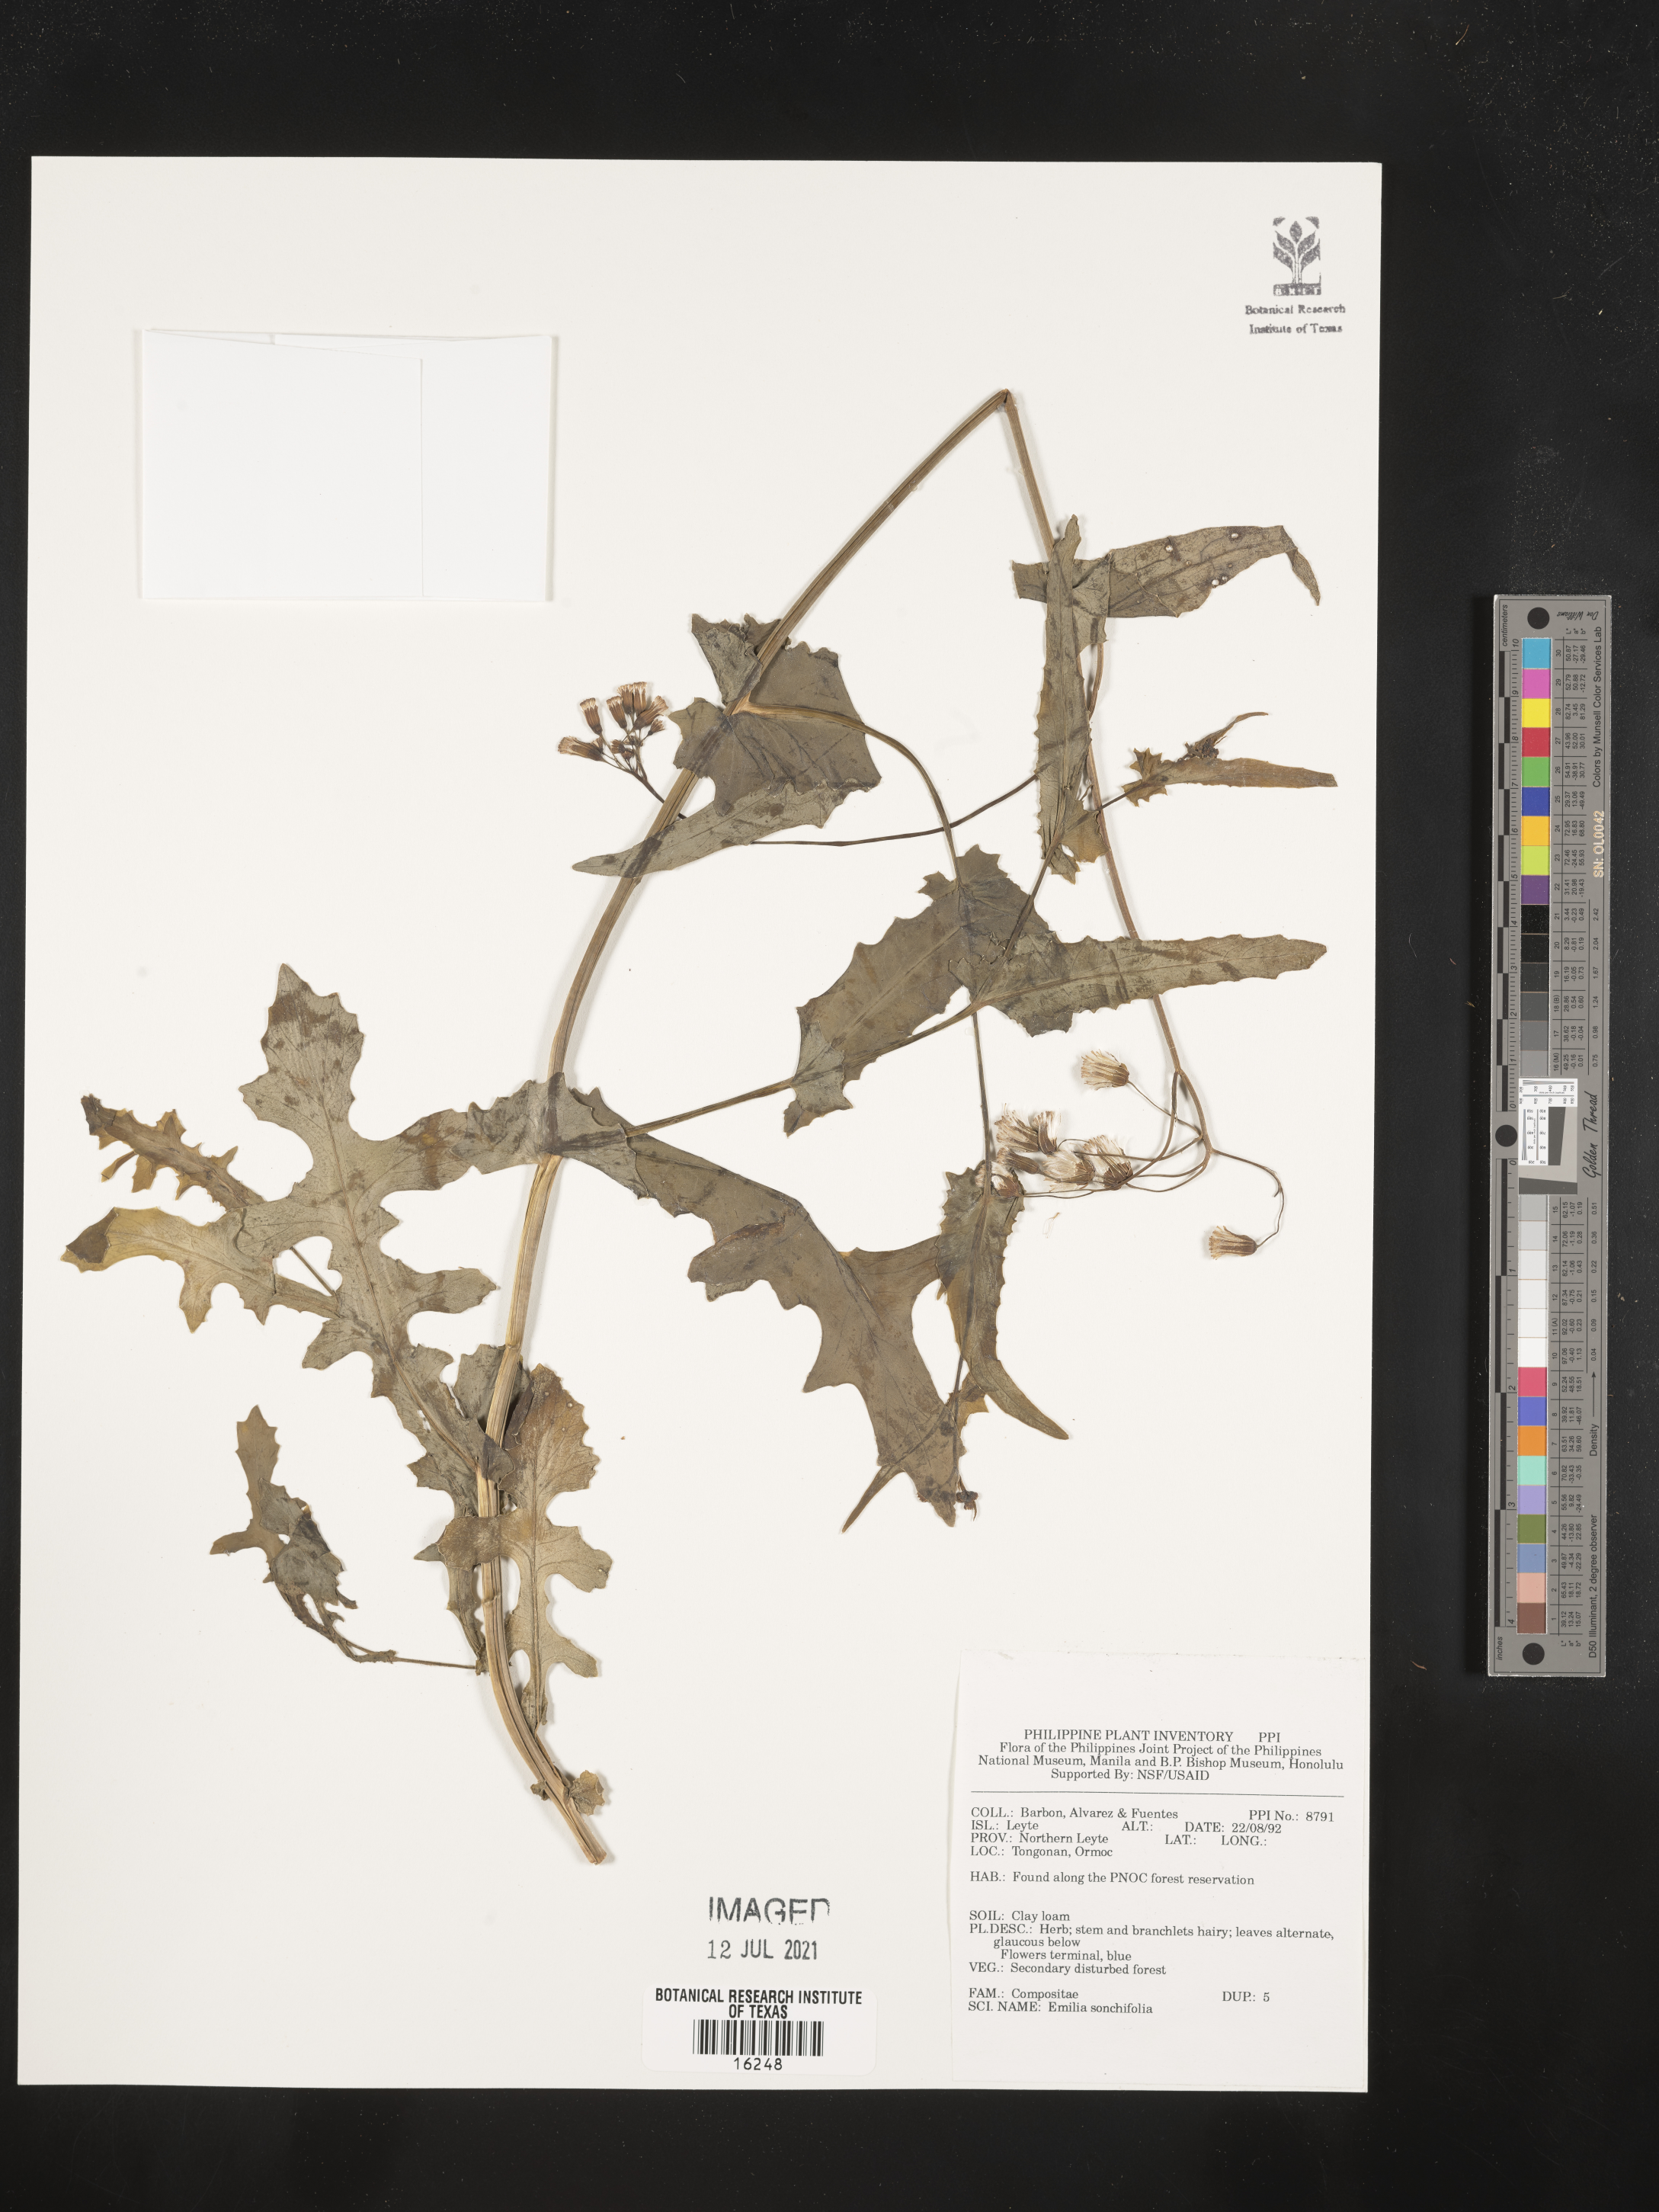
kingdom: Plantae
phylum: Tracheophyta
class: Magnoliopsida
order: Asterales
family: Asteraceae
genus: Emilia
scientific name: Emilia sonchifolia
